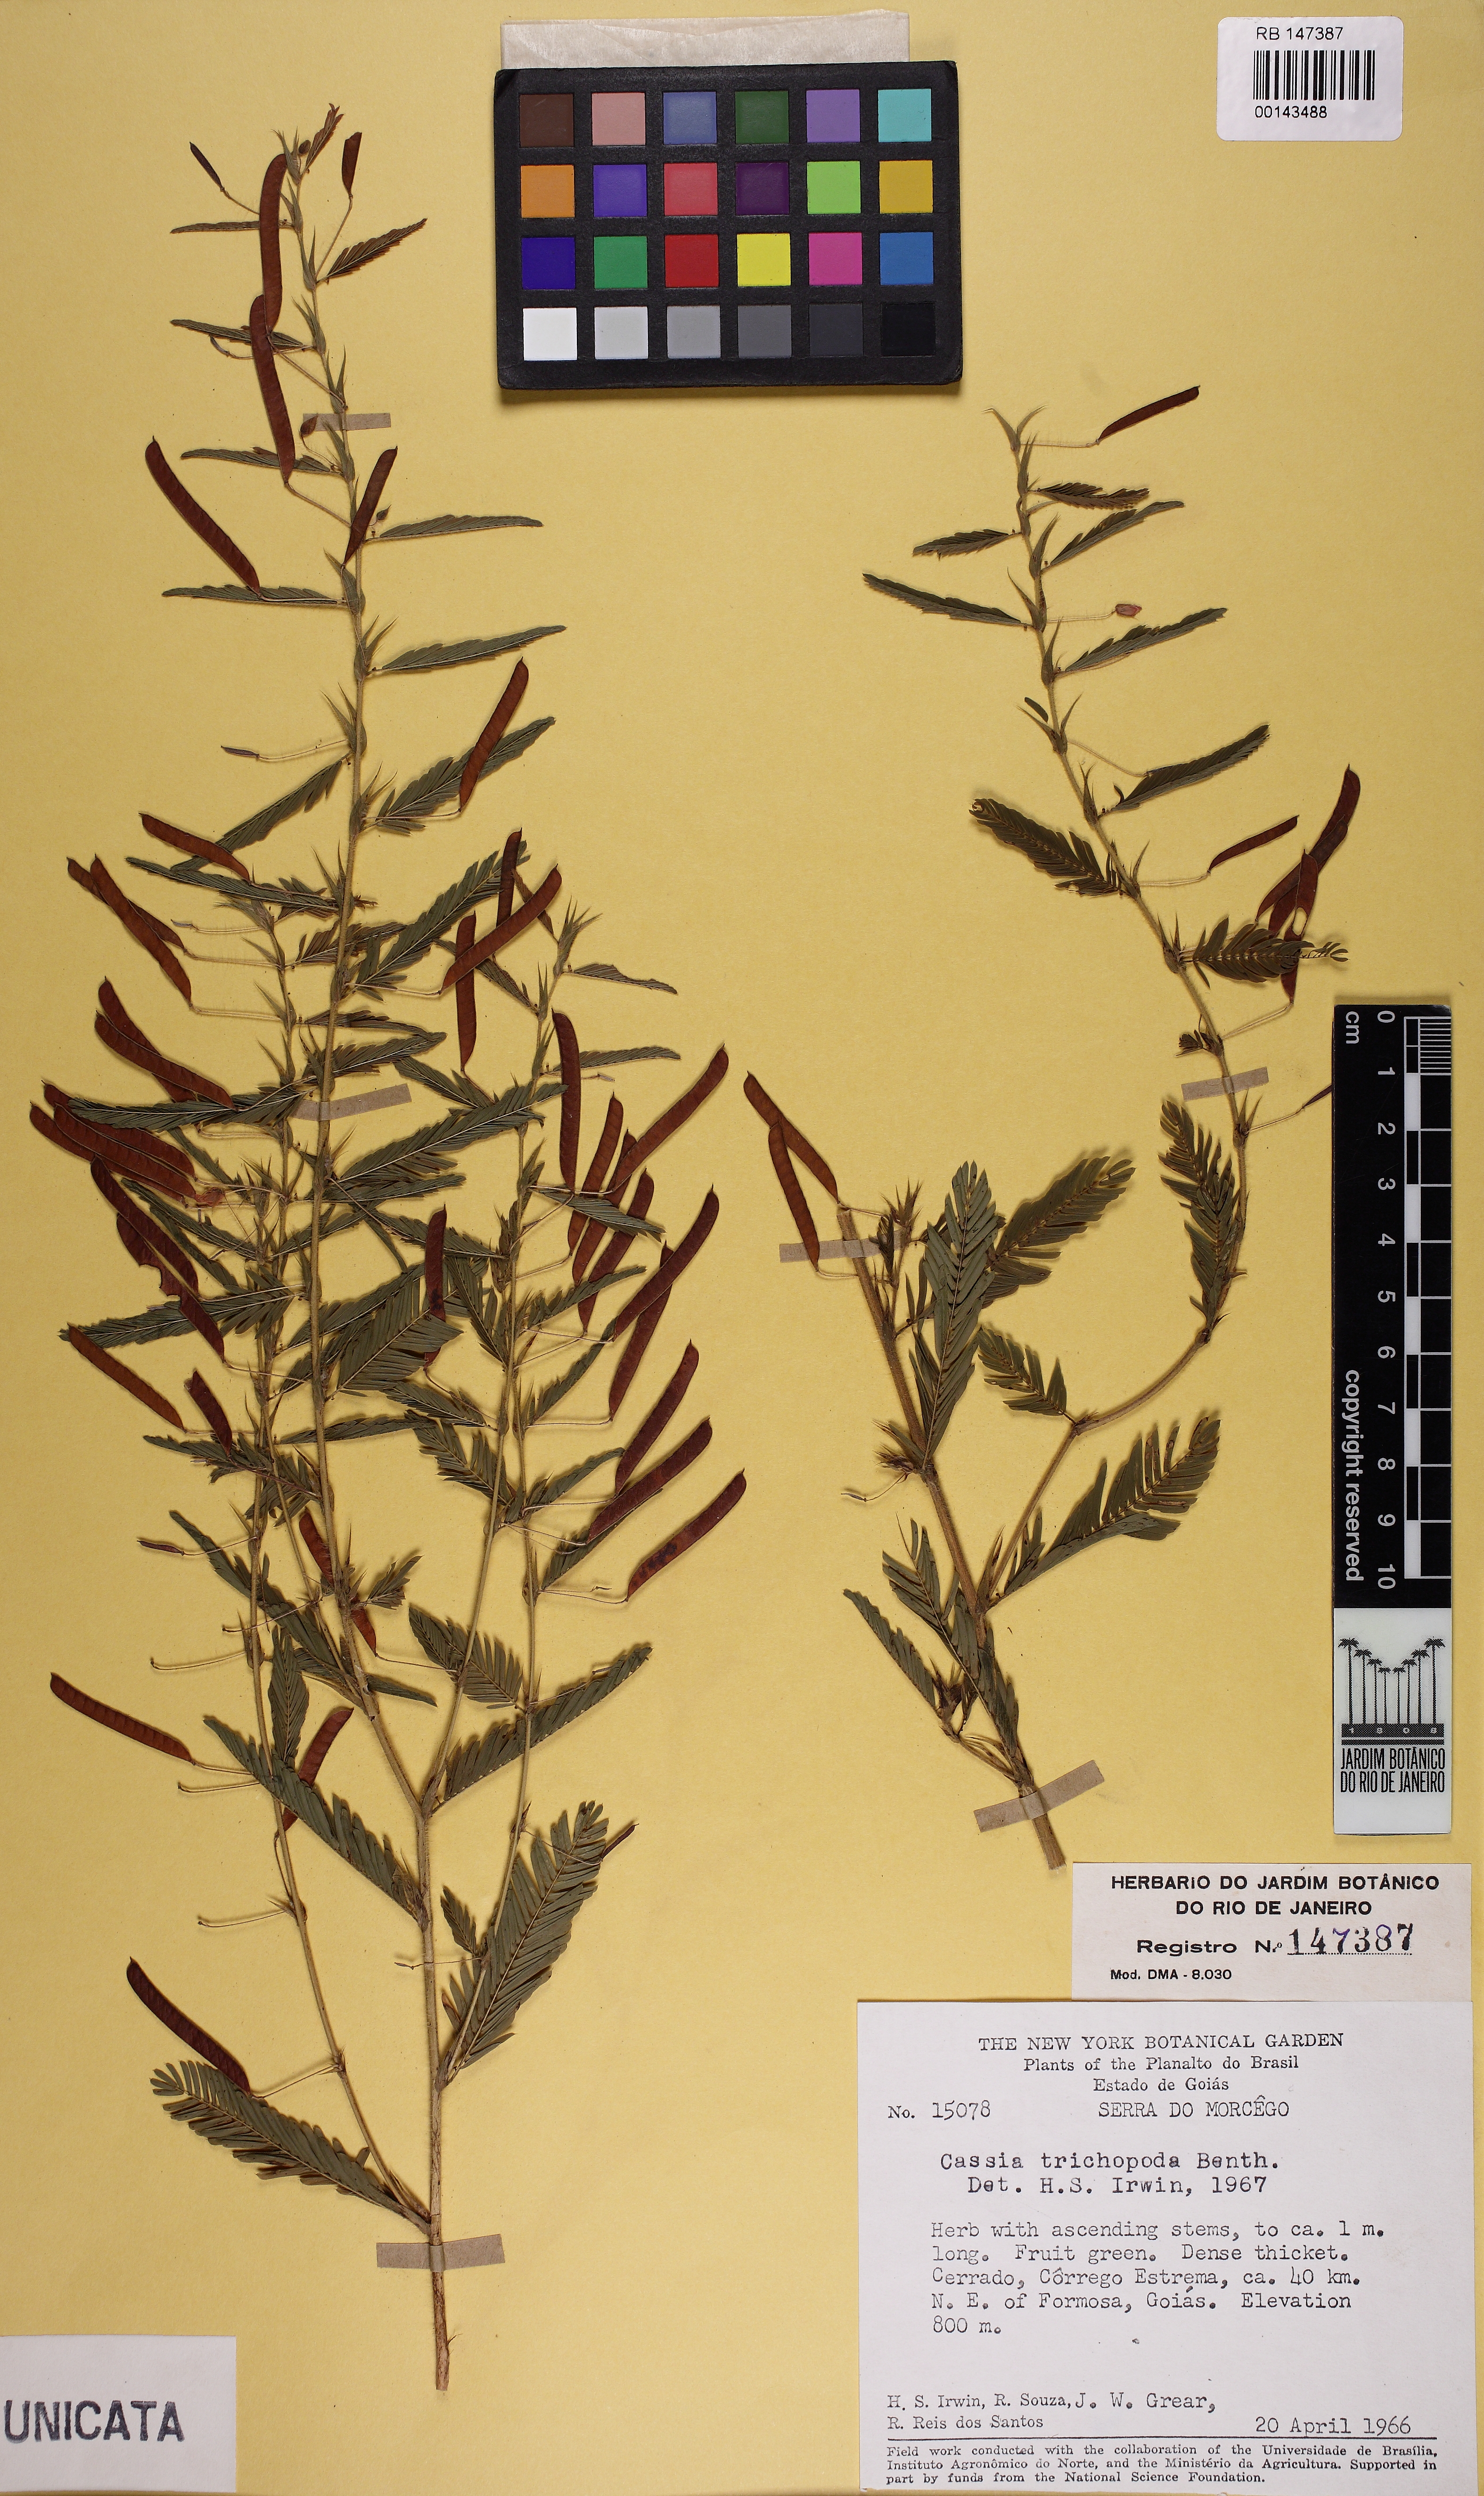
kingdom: Plantae
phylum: Tracheophyta
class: Magnoliopsida
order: Fabales
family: Fabaceae
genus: Chamaecrista
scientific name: Chamaecrista trichopoda
